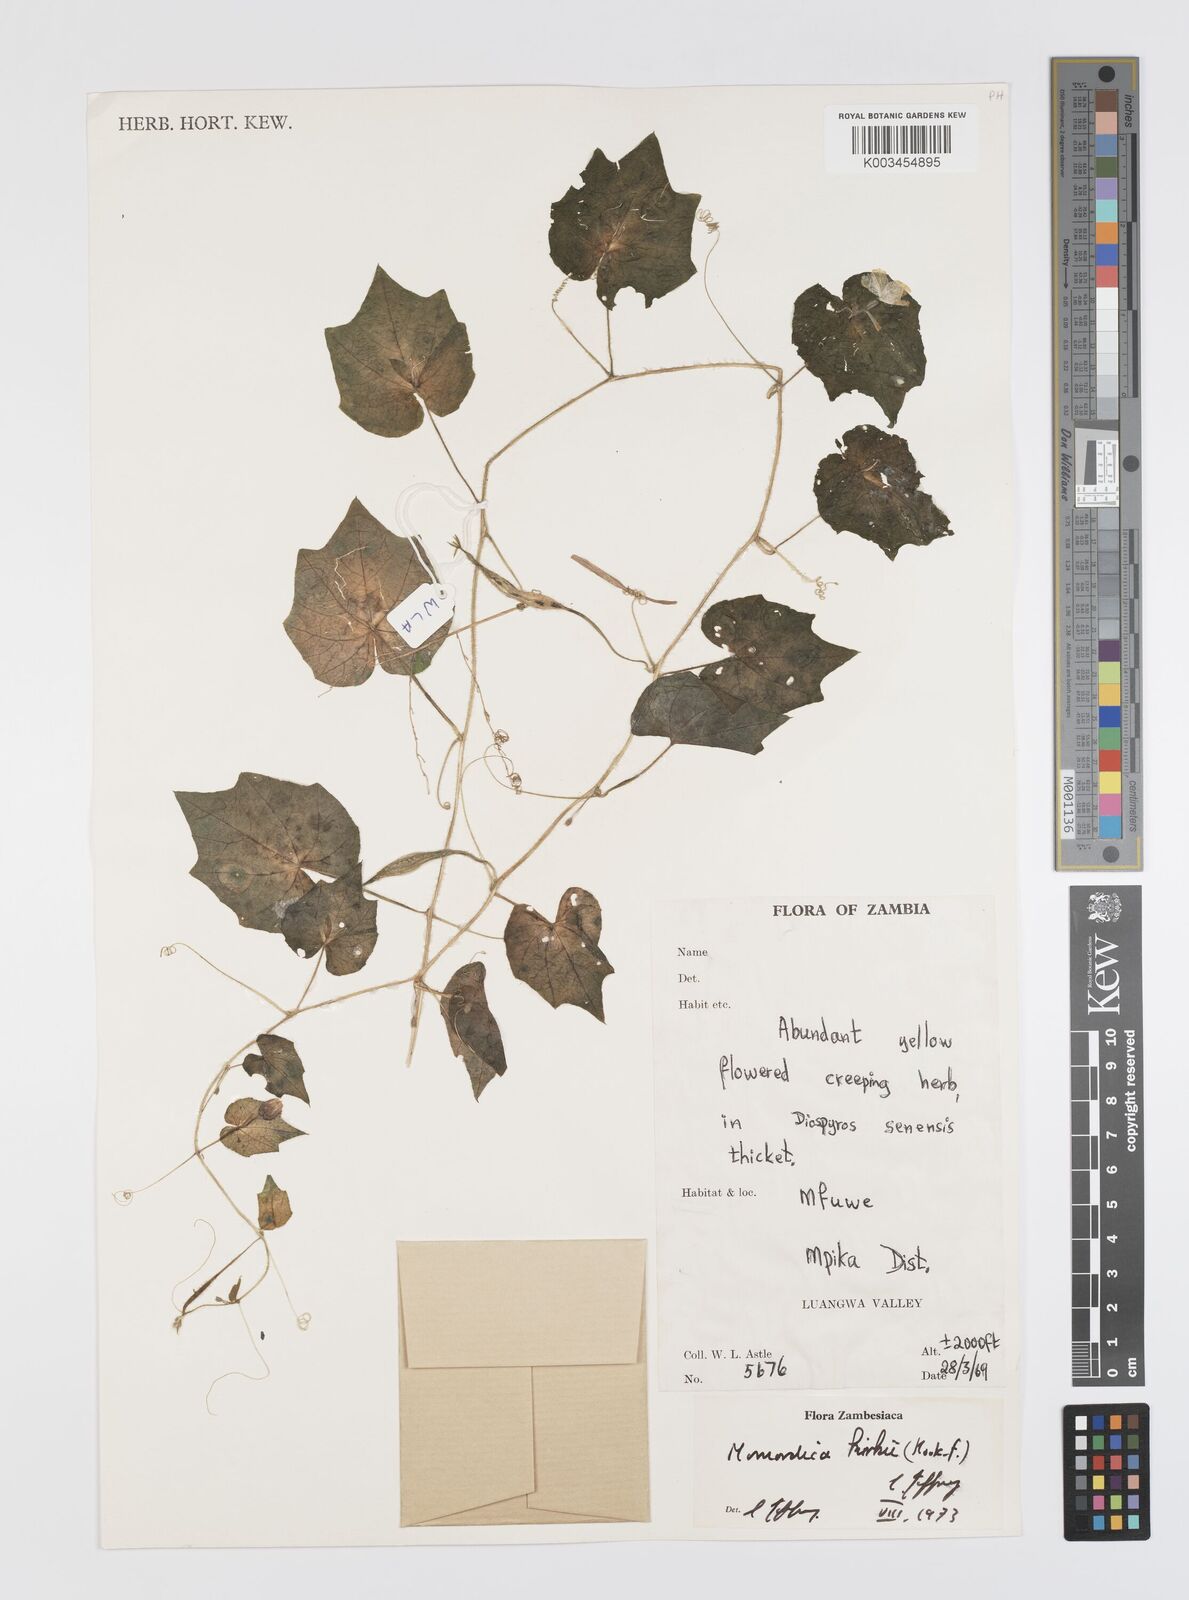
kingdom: Plantae
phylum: Tracheophyta
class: Magnoliopsida
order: Cucurbitales
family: Cucurbitaceae
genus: Momordica
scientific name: Momordica kirkii
